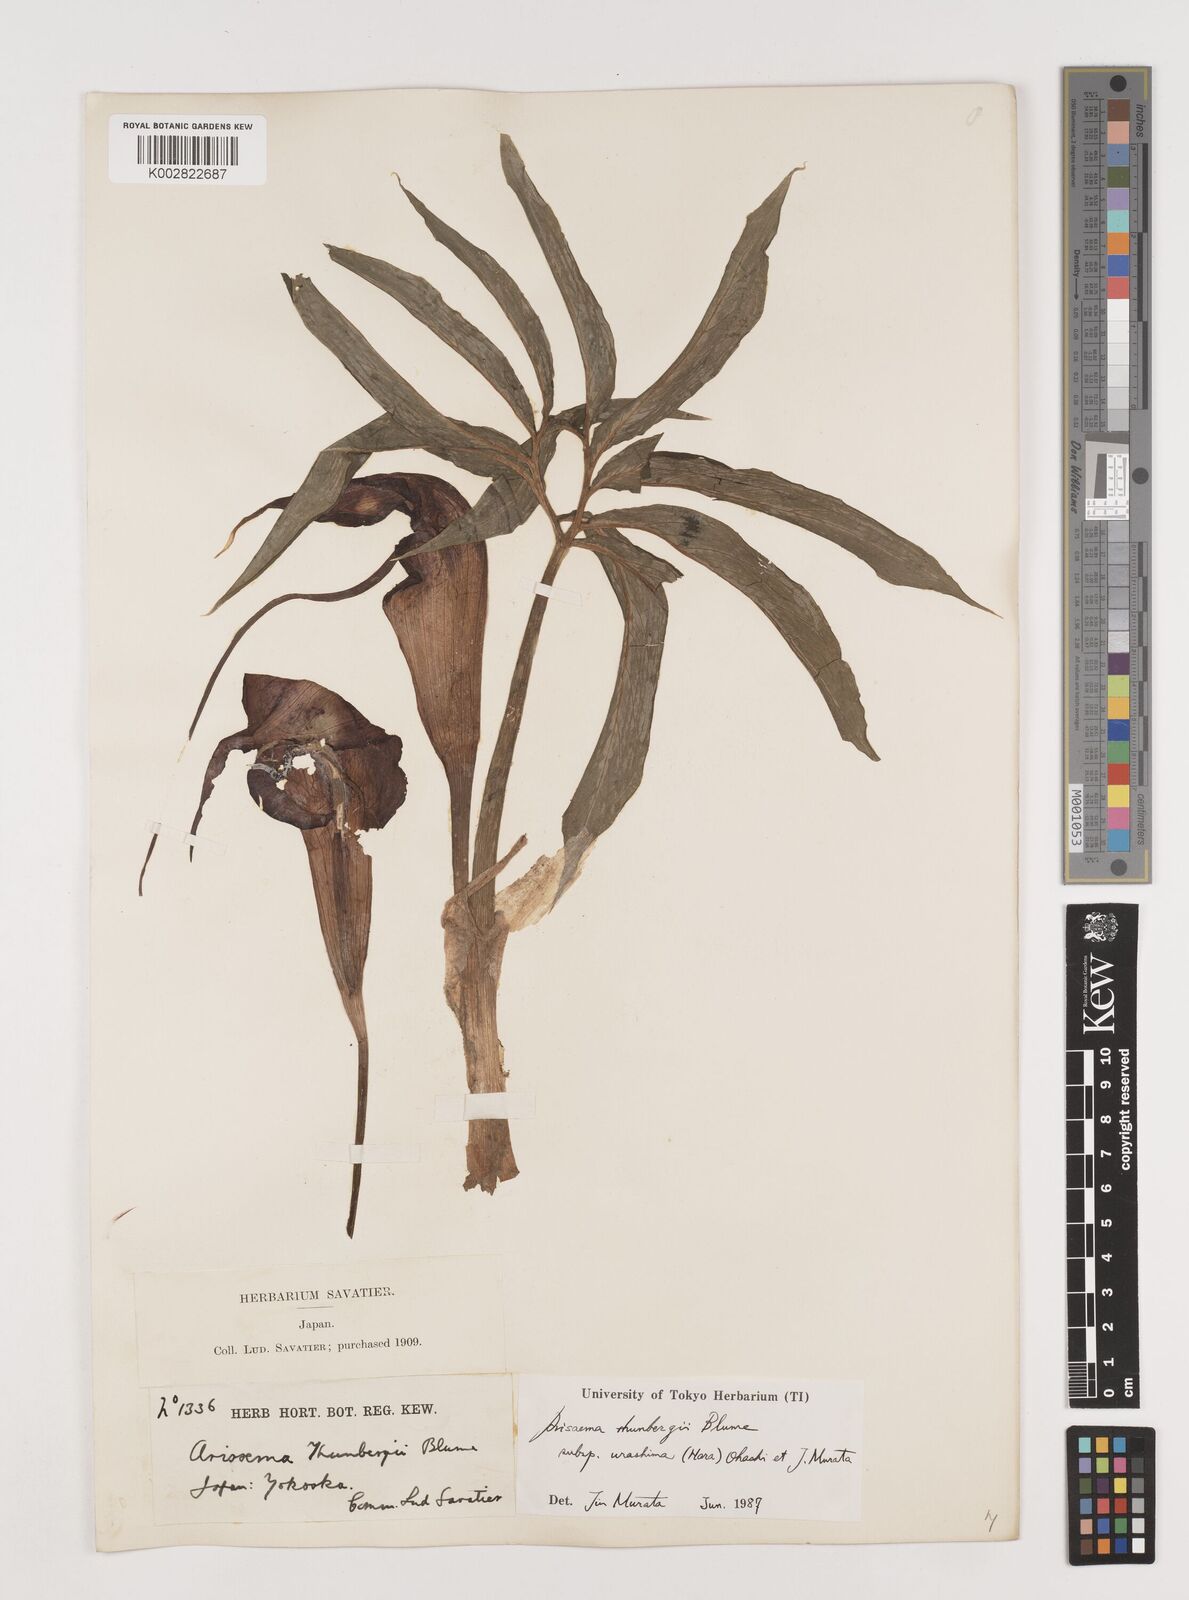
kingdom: Plantae
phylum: Tracheophyta
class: Liliopsida
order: Alismatales
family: Araceae
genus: Arisaema
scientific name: Arisaema thunbergii
